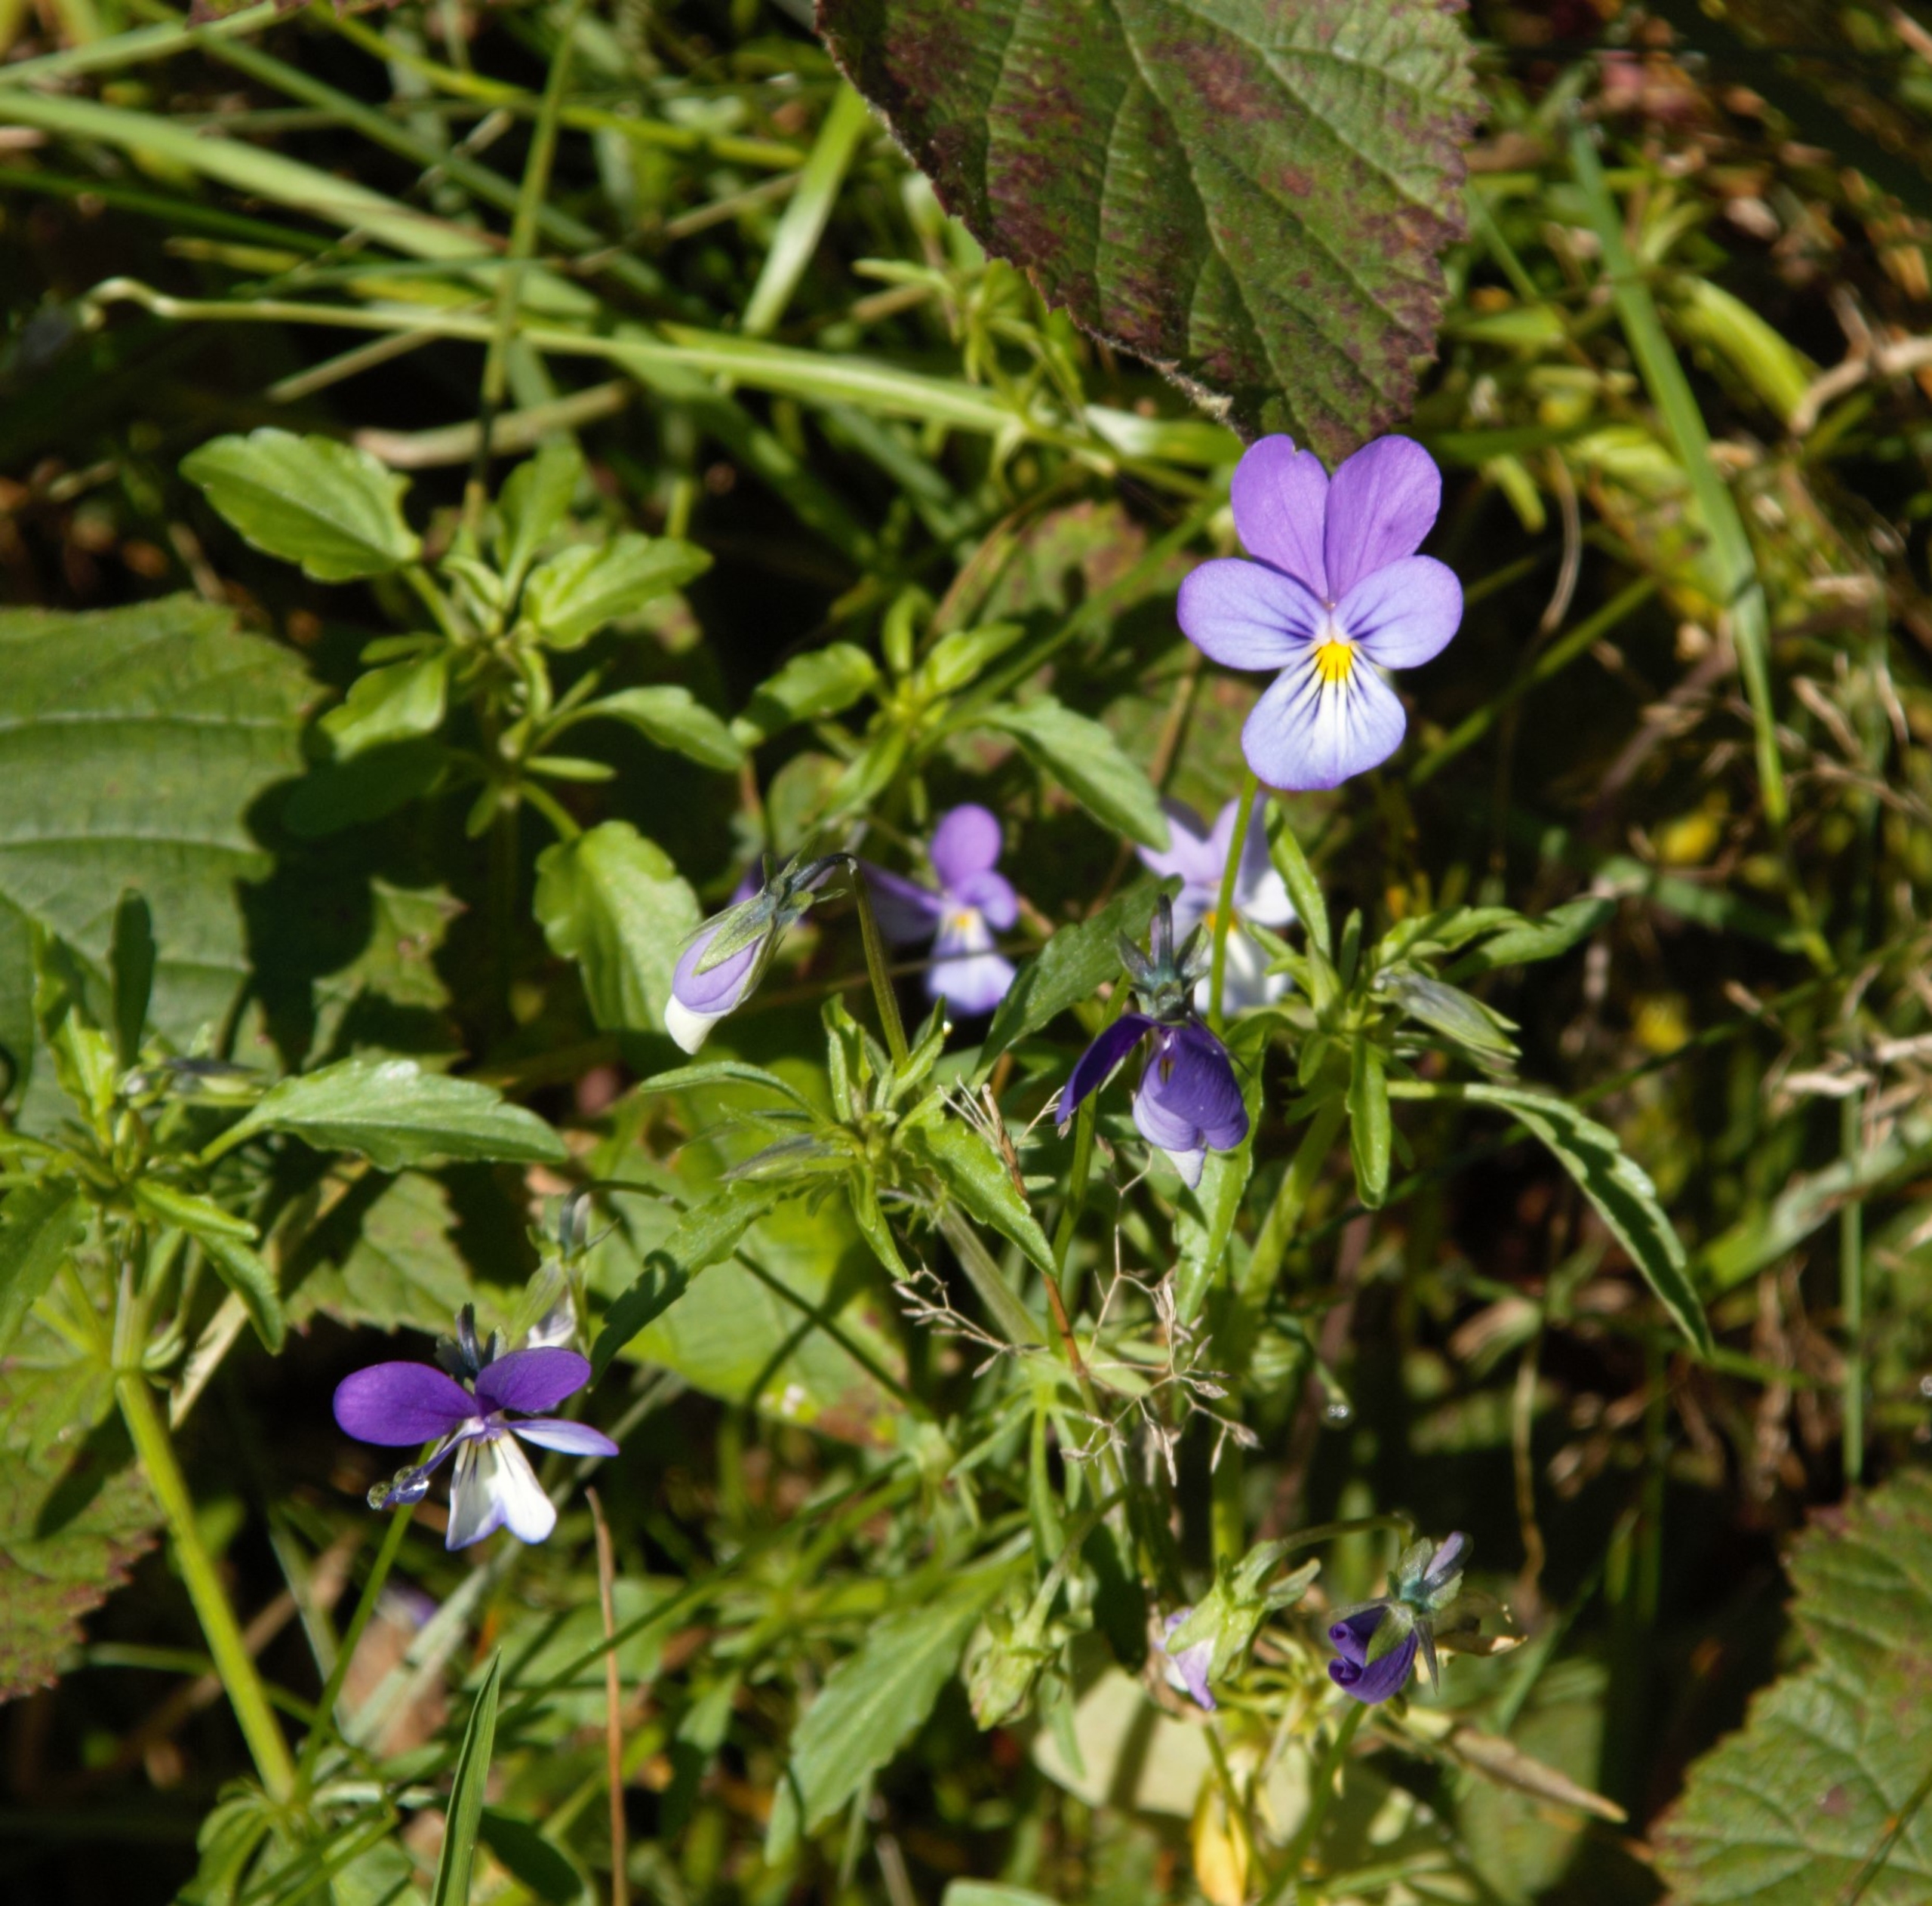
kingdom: Plantae
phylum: Tracheophyta
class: Magnoliopsida
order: Malpighiales
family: Violaceae
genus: Viola
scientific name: Viola tricolor
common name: Stedmoderblomst
